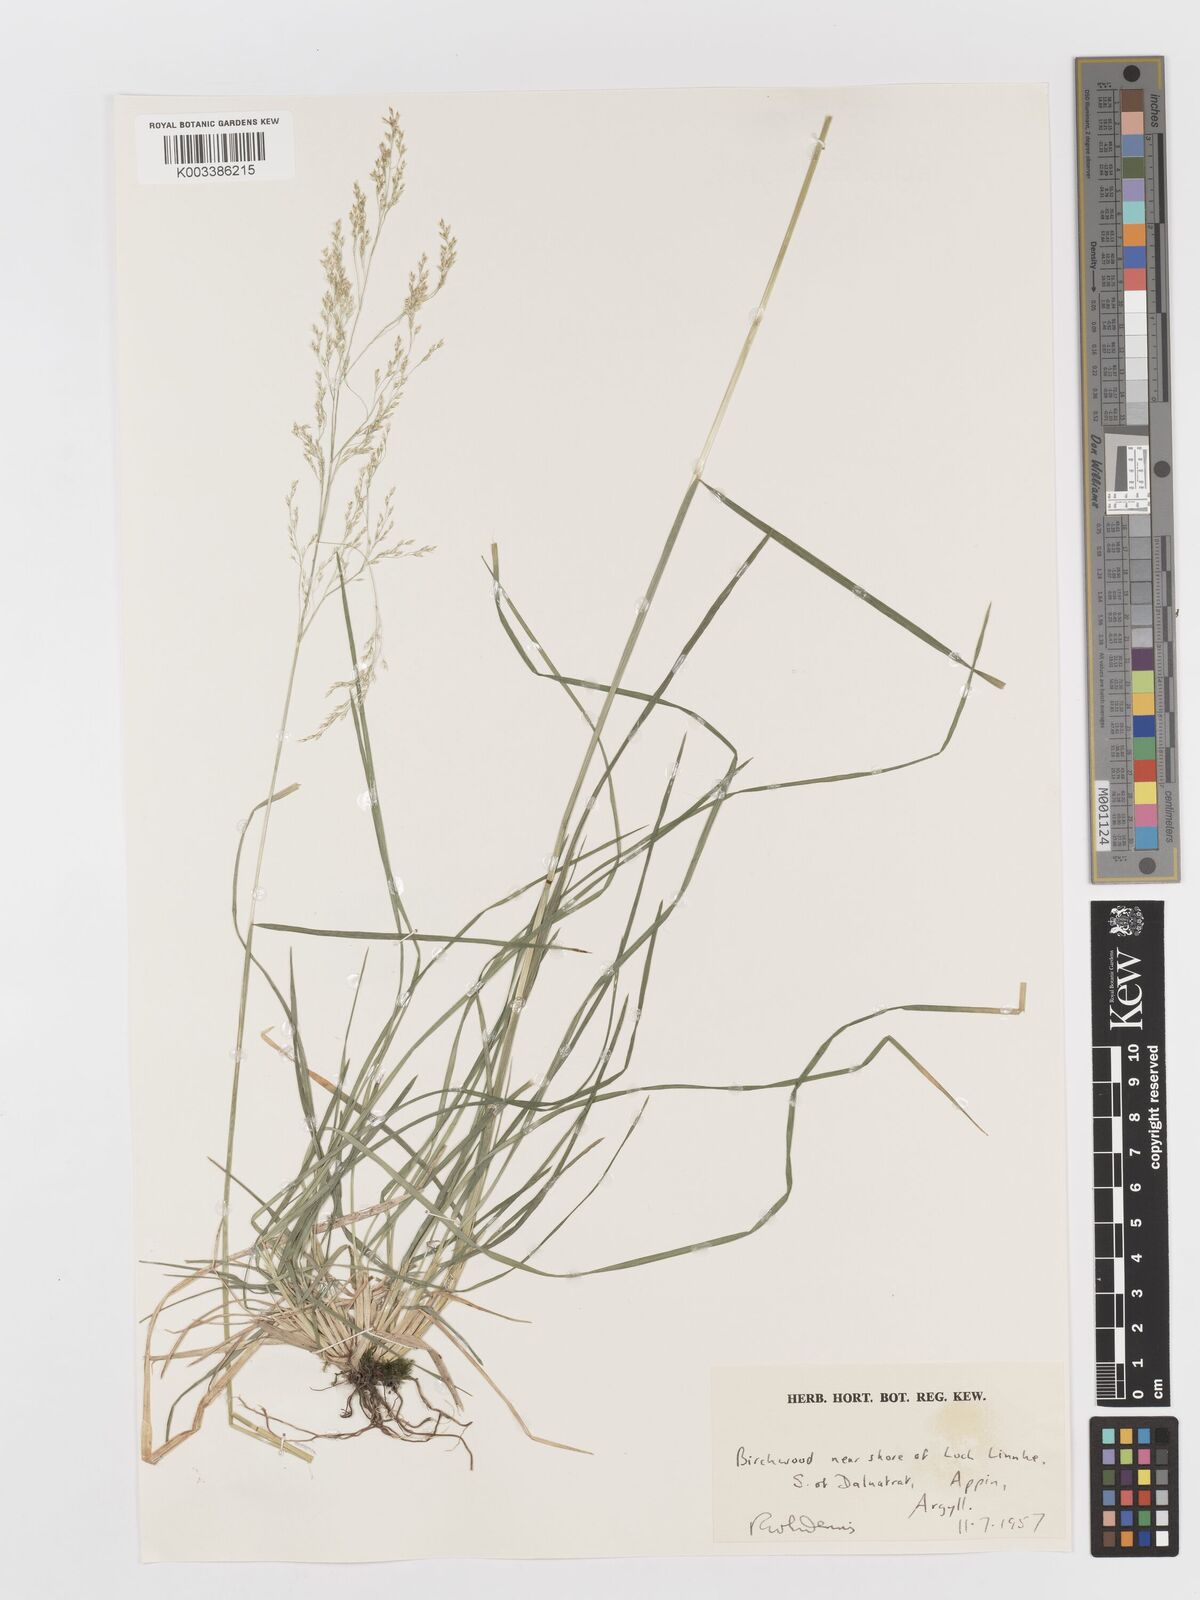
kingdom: Plantae
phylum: Tracheophyta
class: Liliopsida
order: Poales
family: Poaceae
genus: Deschampsia
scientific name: Deschampsia
